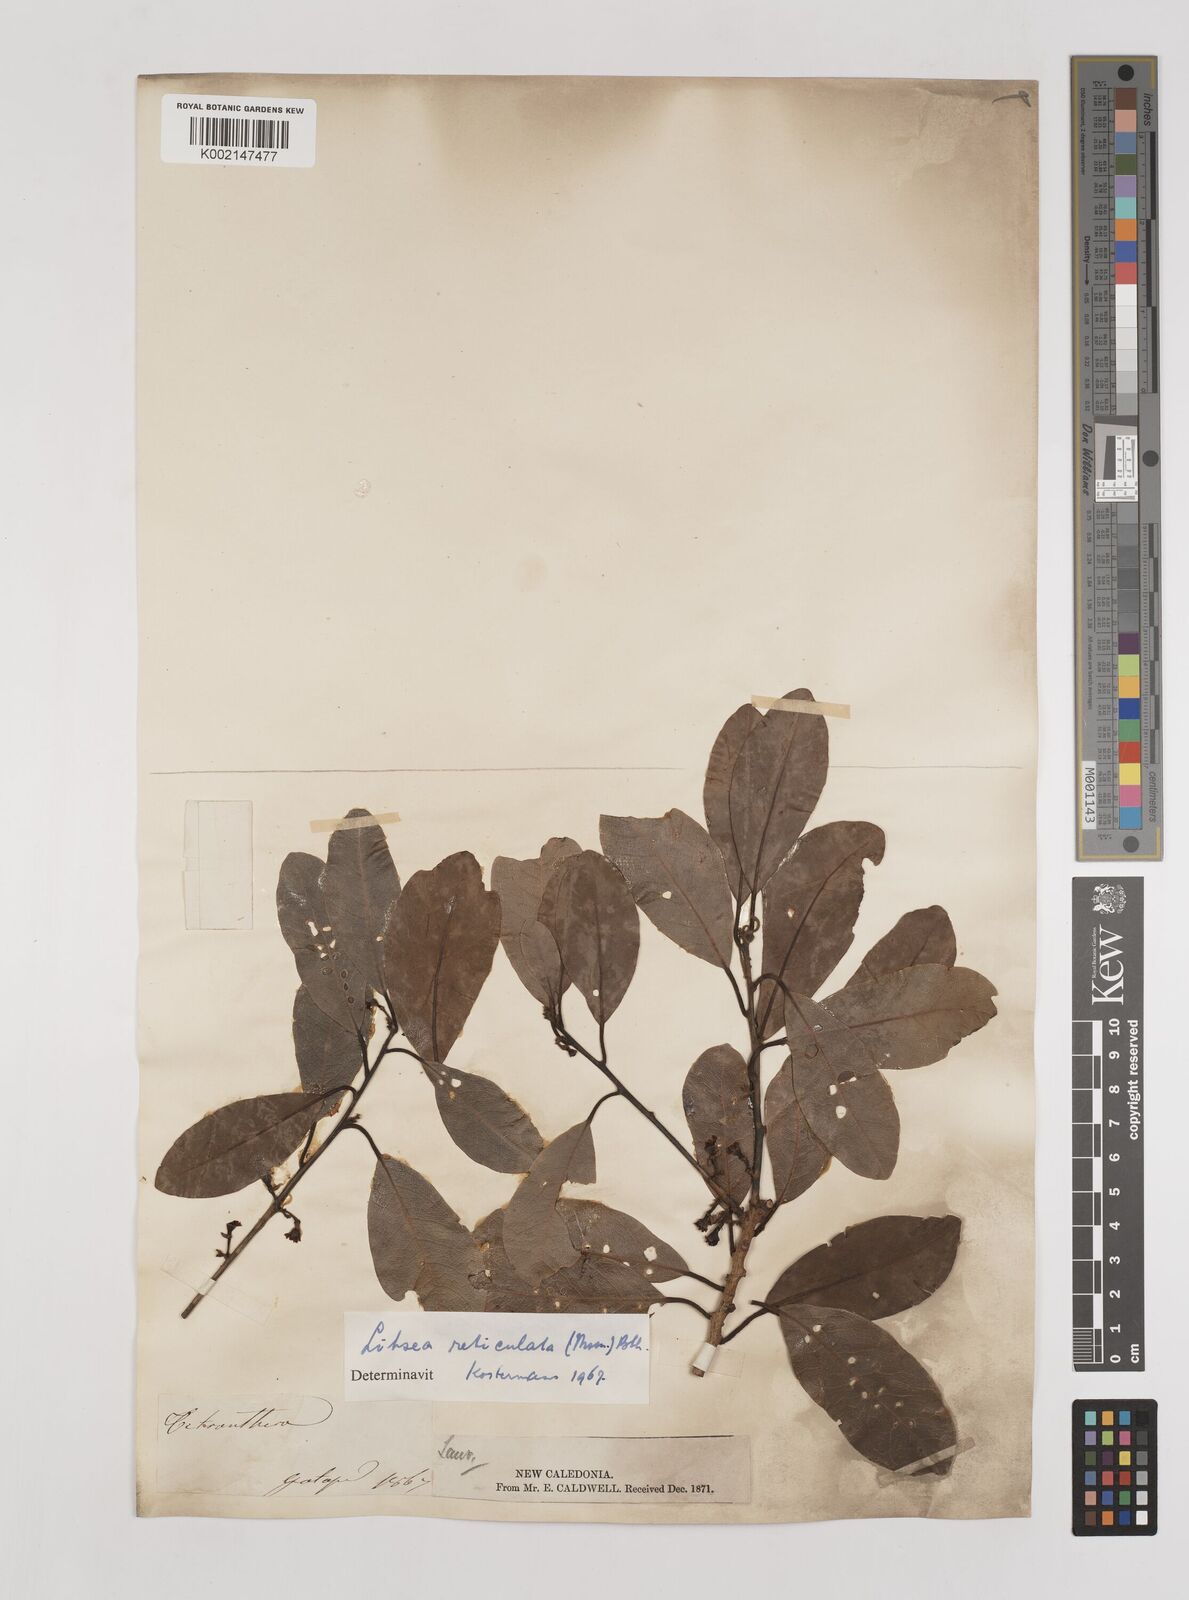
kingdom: Plantae
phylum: Tracheophyta
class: Magnoliopsida
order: Laurales
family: Lauraceae
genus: Litsea
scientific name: Litsea reticulata
